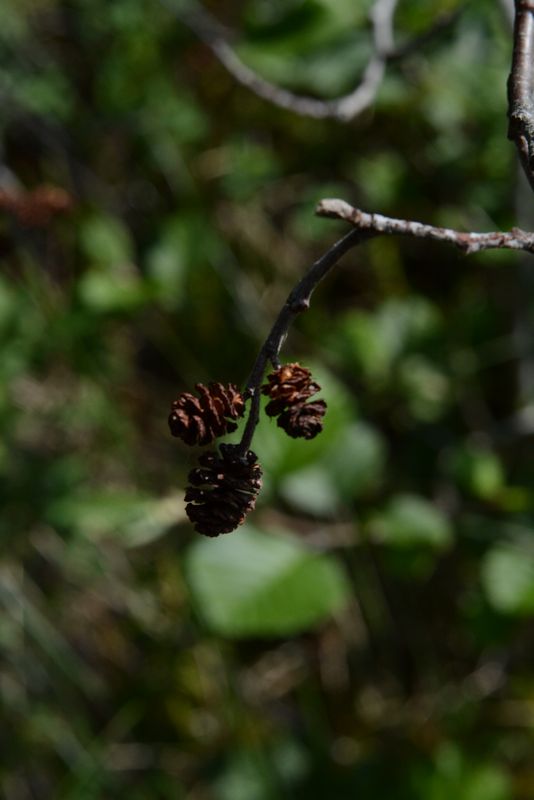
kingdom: Plantae
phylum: Tracheophyta
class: Magnoliopsida
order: Fagales
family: Betulaceae
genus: Alnus
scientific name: Alnus incana
